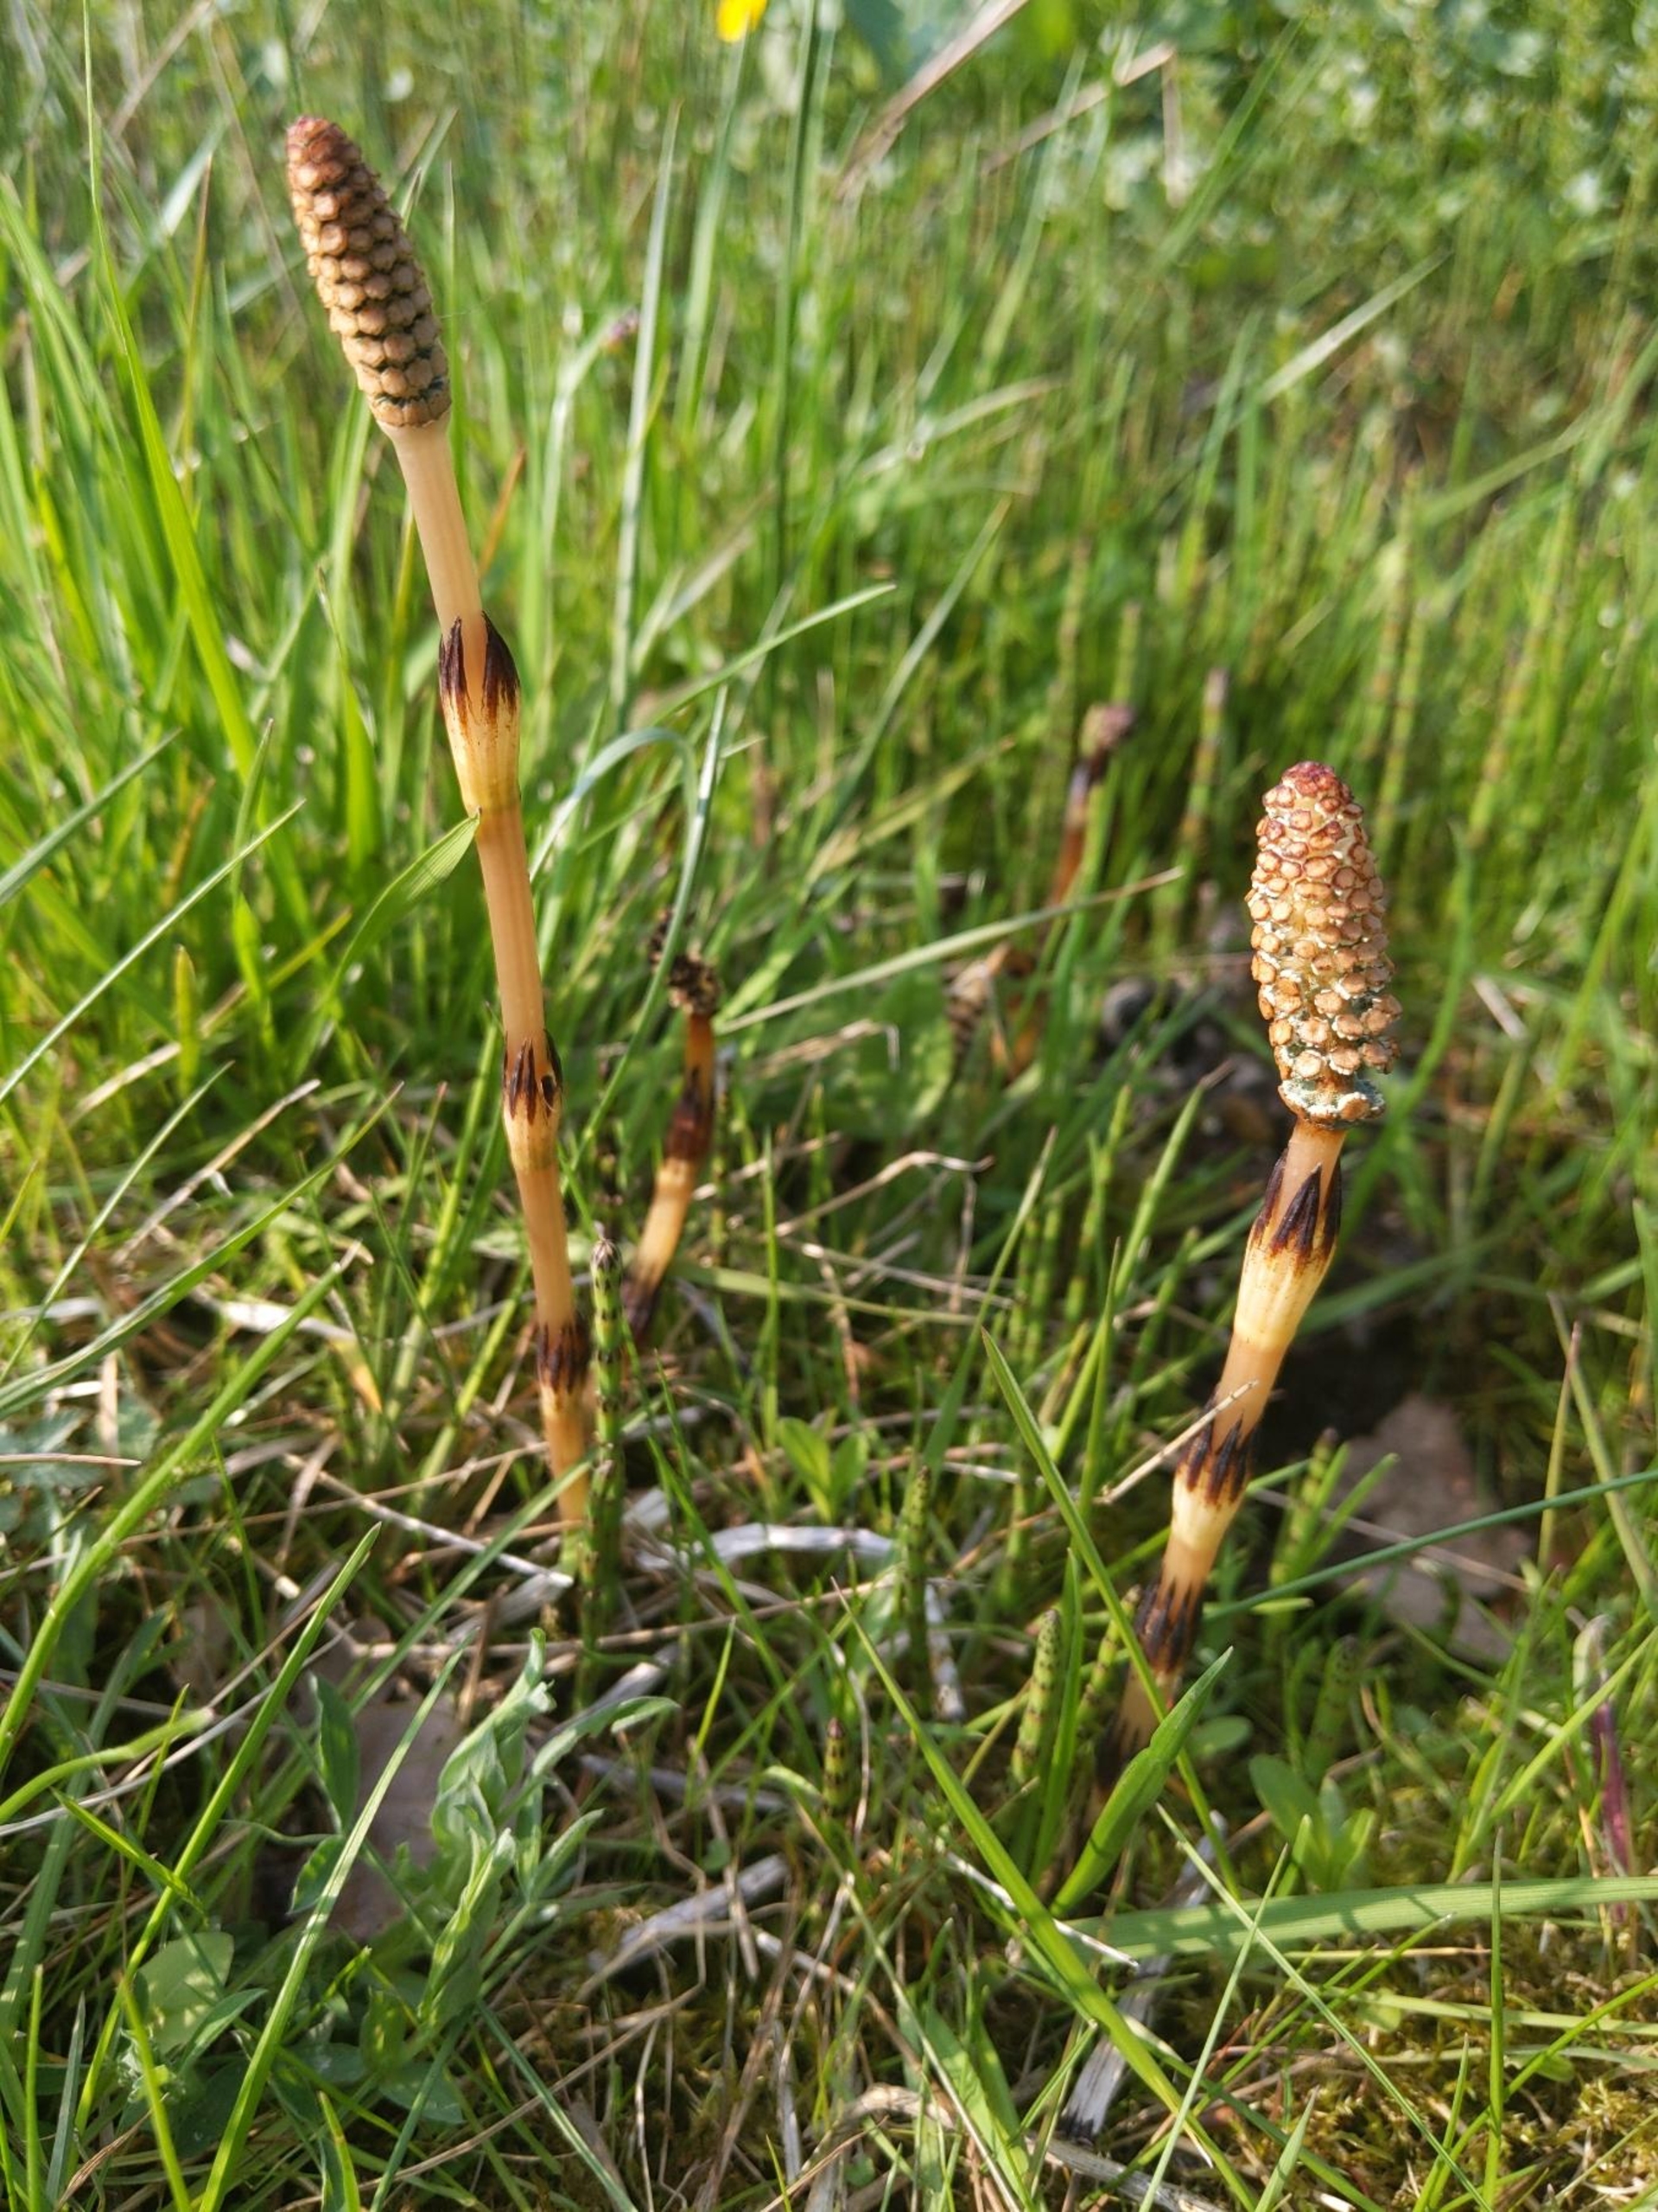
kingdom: Plantae
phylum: Tracheophyta
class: Polypodiopsida
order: Equisetales
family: Equisetaceae
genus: Equisetum
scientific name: Equisetum arvense
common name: Ager-padderok
